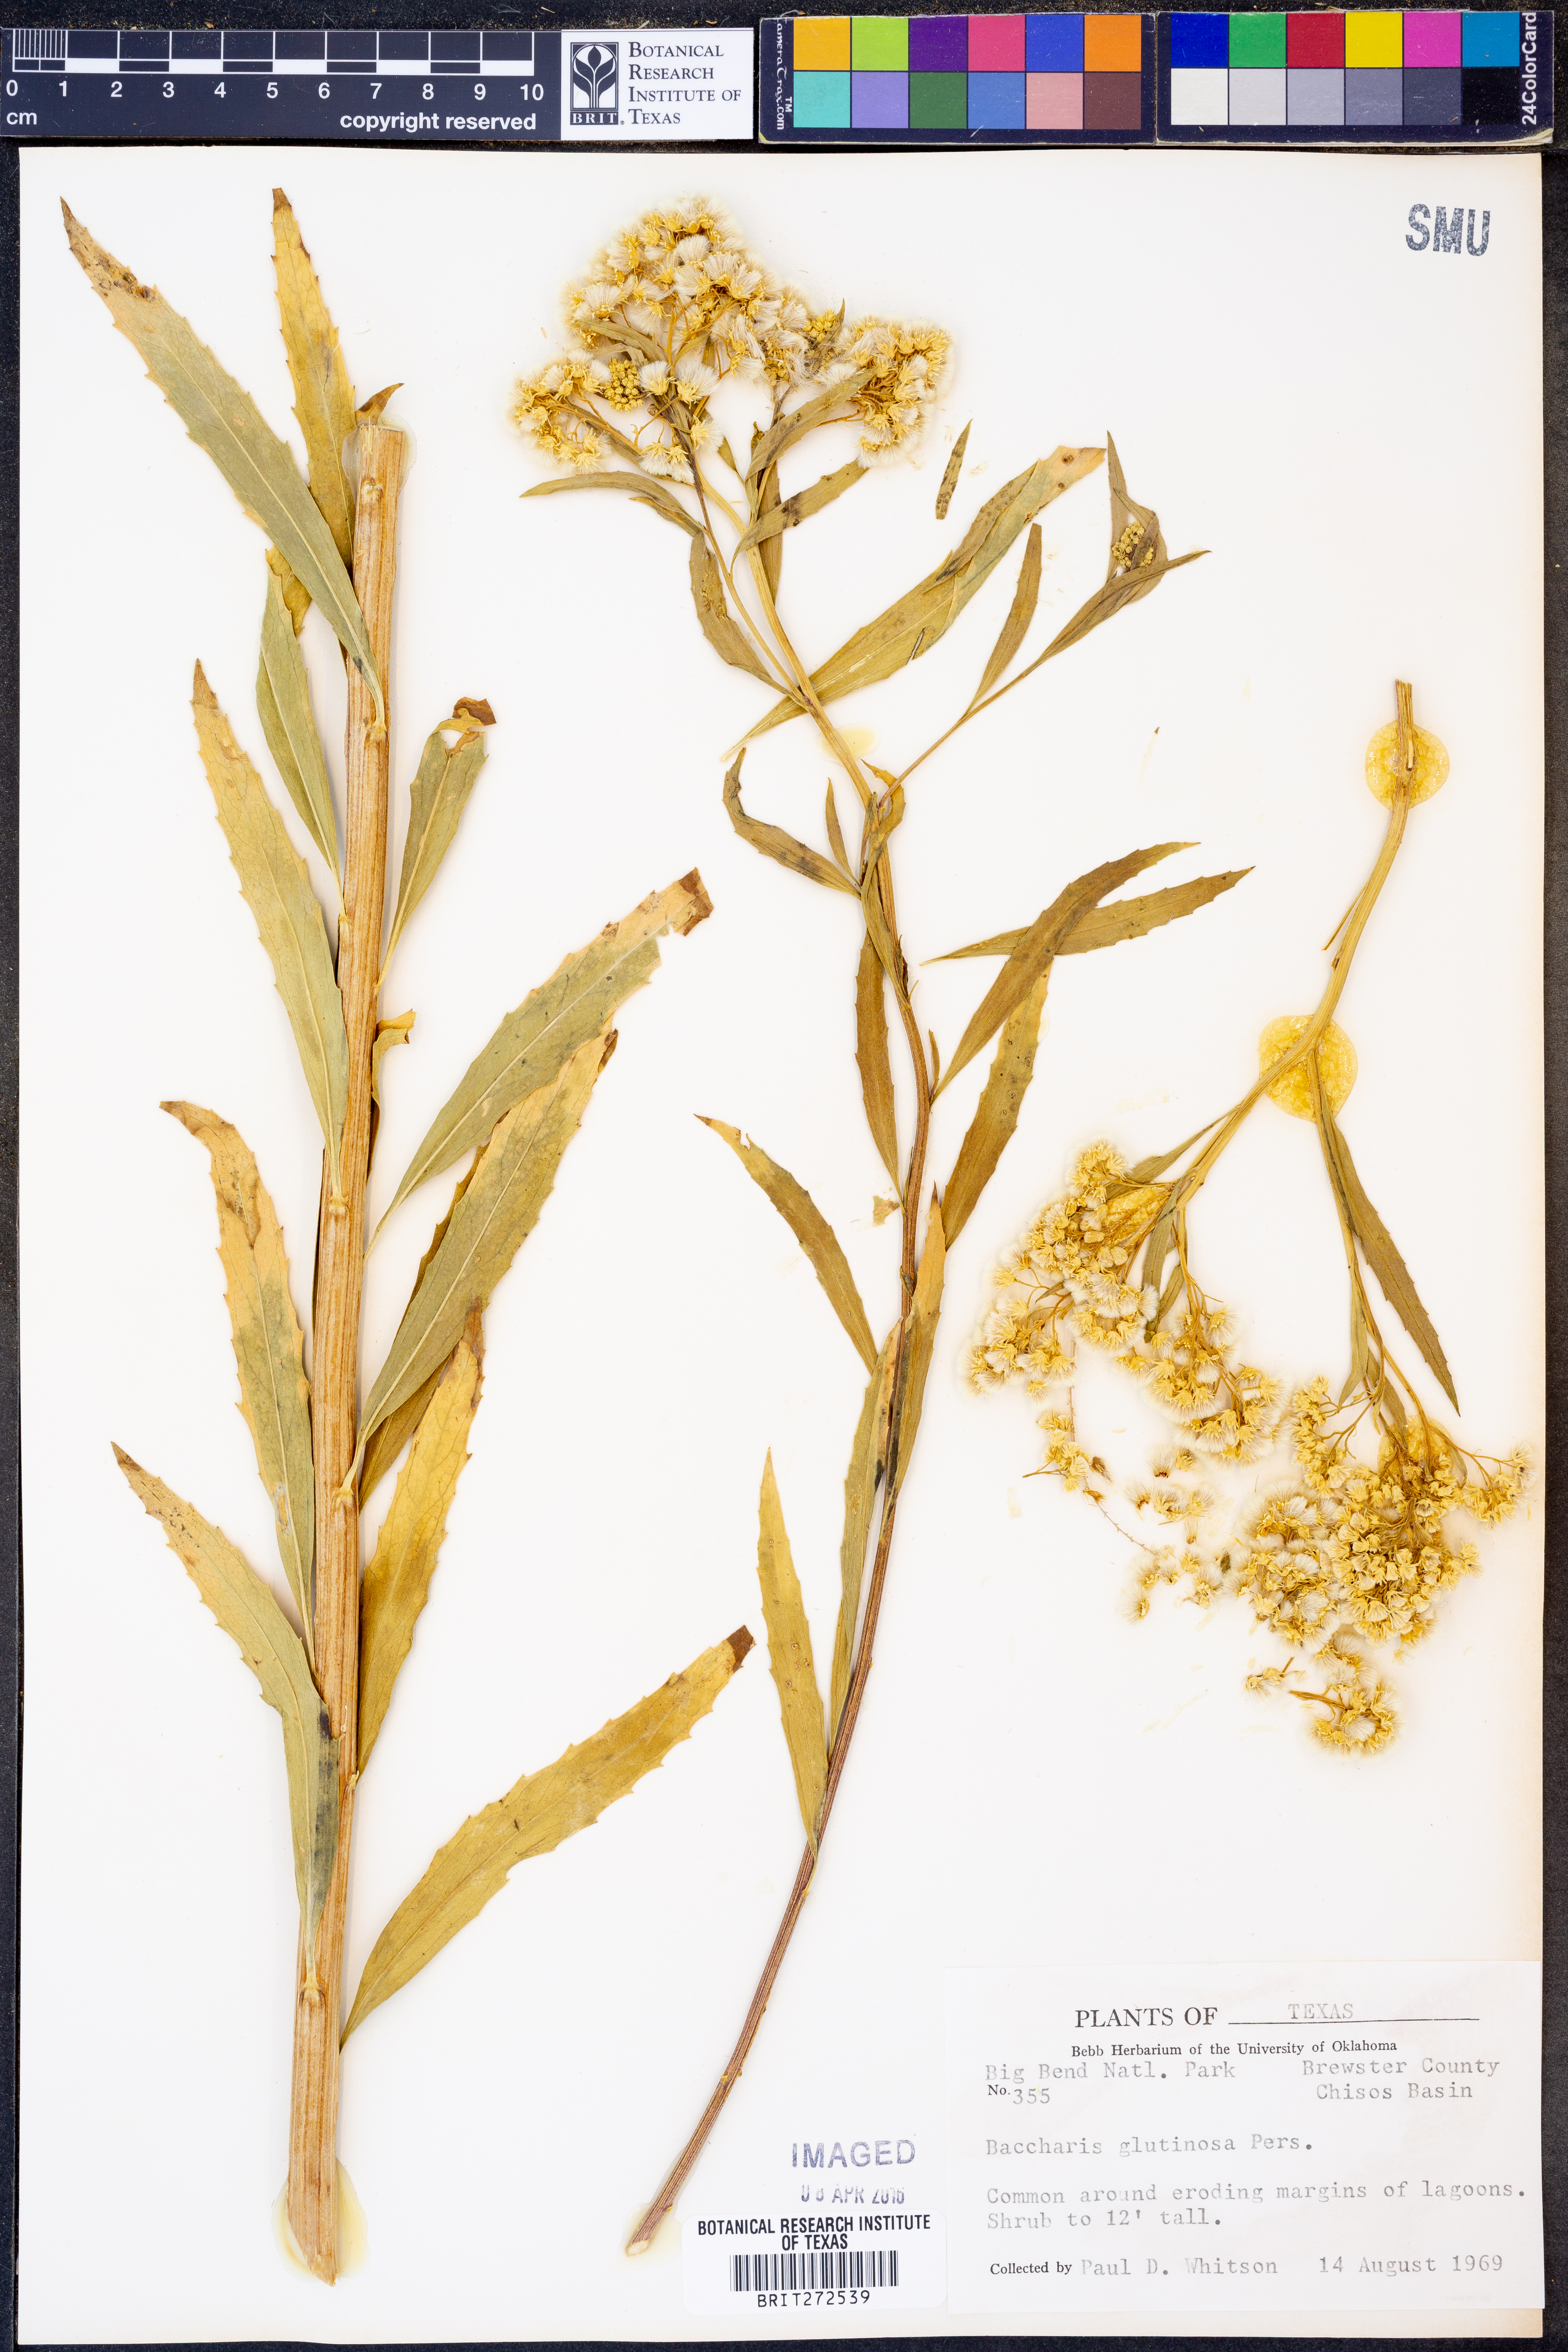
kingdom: Plantae
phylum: Tracheophyta
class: Magnoliopsida
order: Asterales
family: Asteraceae
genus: Baccharis
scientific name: Baccharis glutinosa
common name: Saltmarsh baccharis
